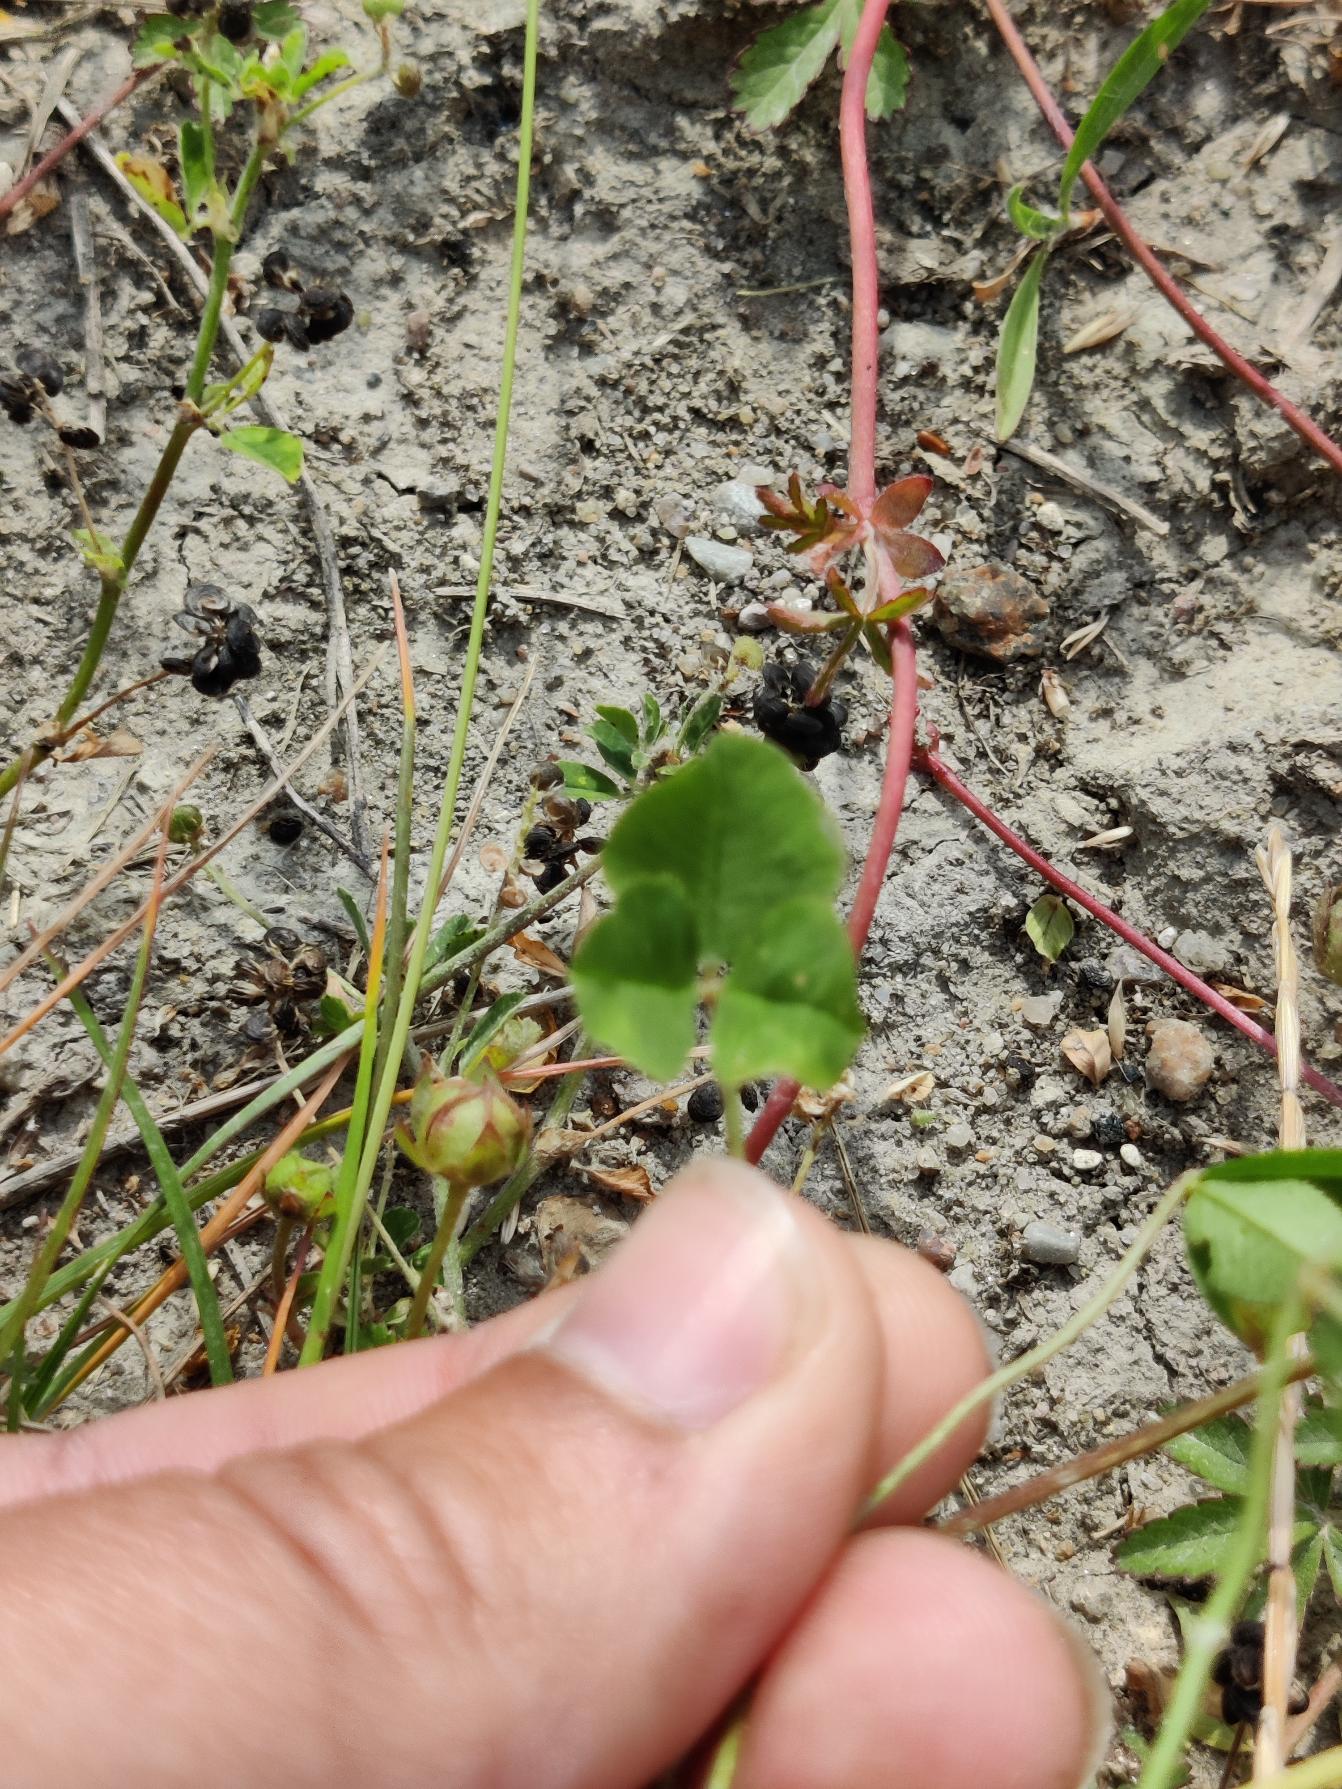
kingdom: Plantae
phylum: Tracheophyta
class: Magnoliopsida
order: Fabales
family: Fabaceae
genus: Trifolium
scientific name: Trifolium repens
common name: Hvid-kløver
